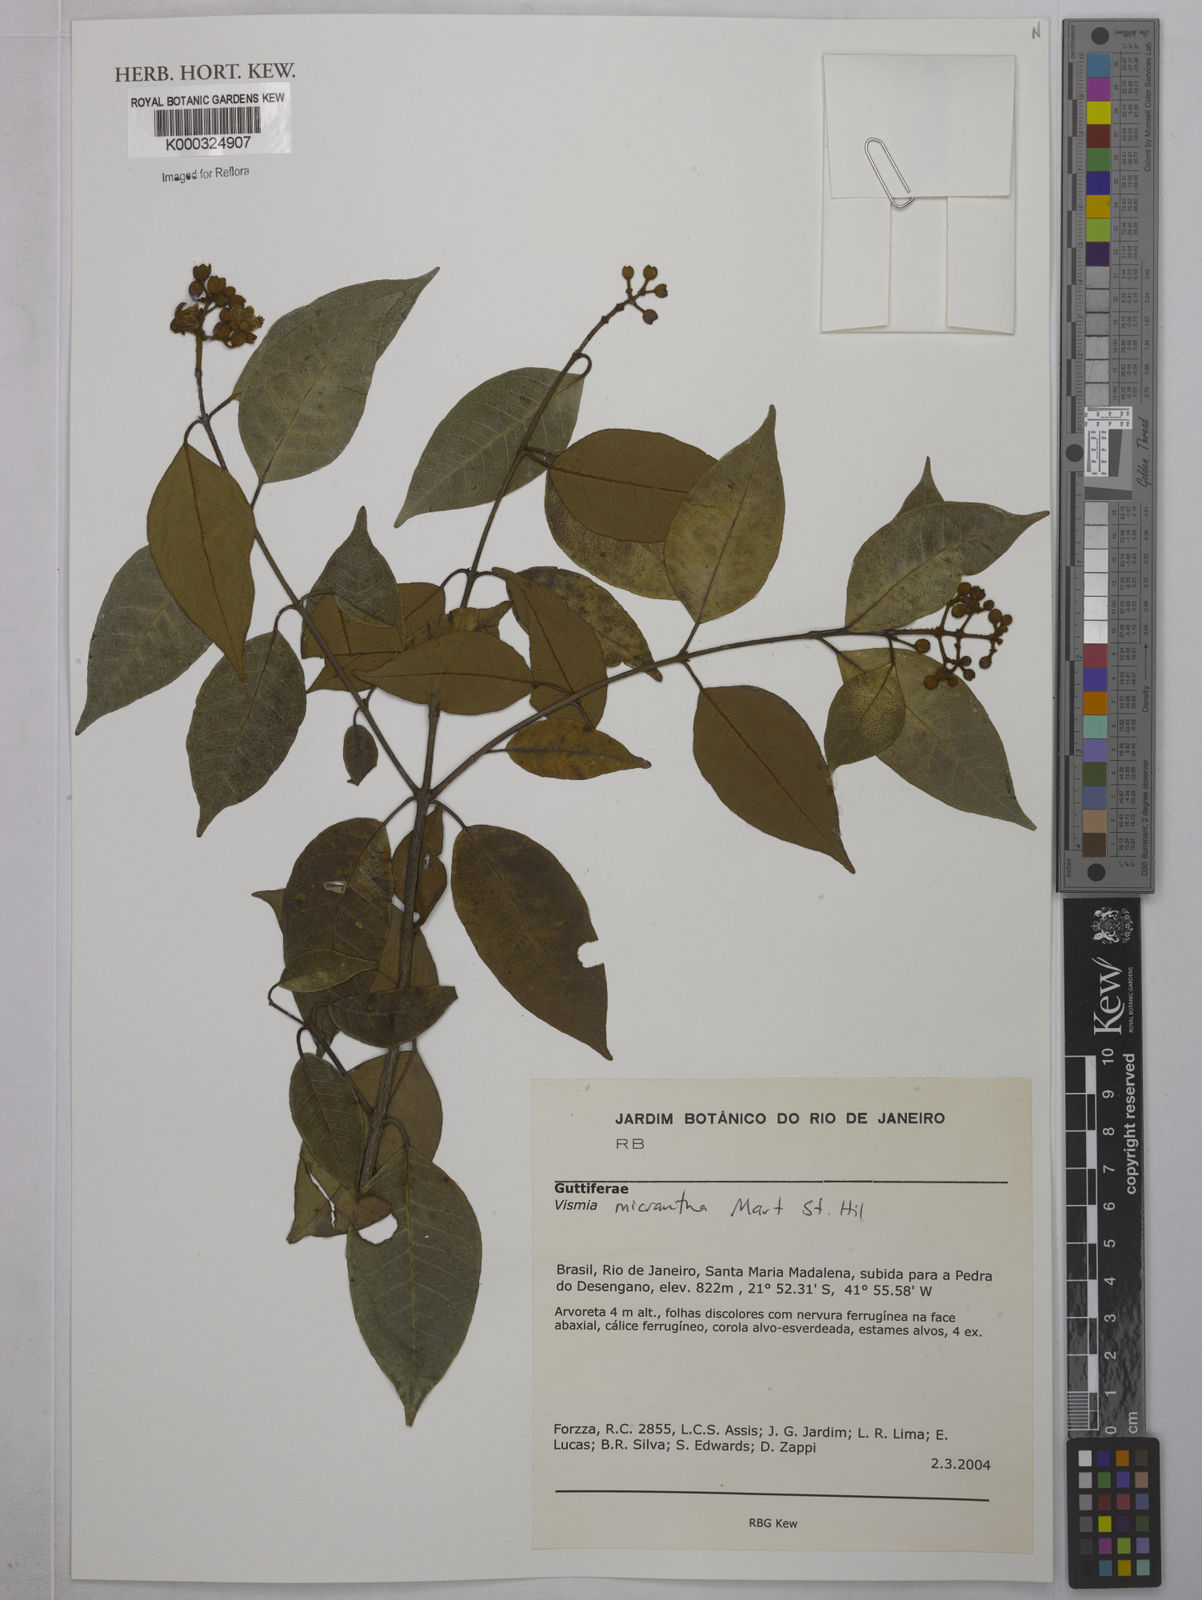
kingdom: Plantae
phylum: Tracheophyta
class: Magnoliopsida
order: Malpighiales
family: Hypericaceae
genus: Vismia
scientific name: Vismia
